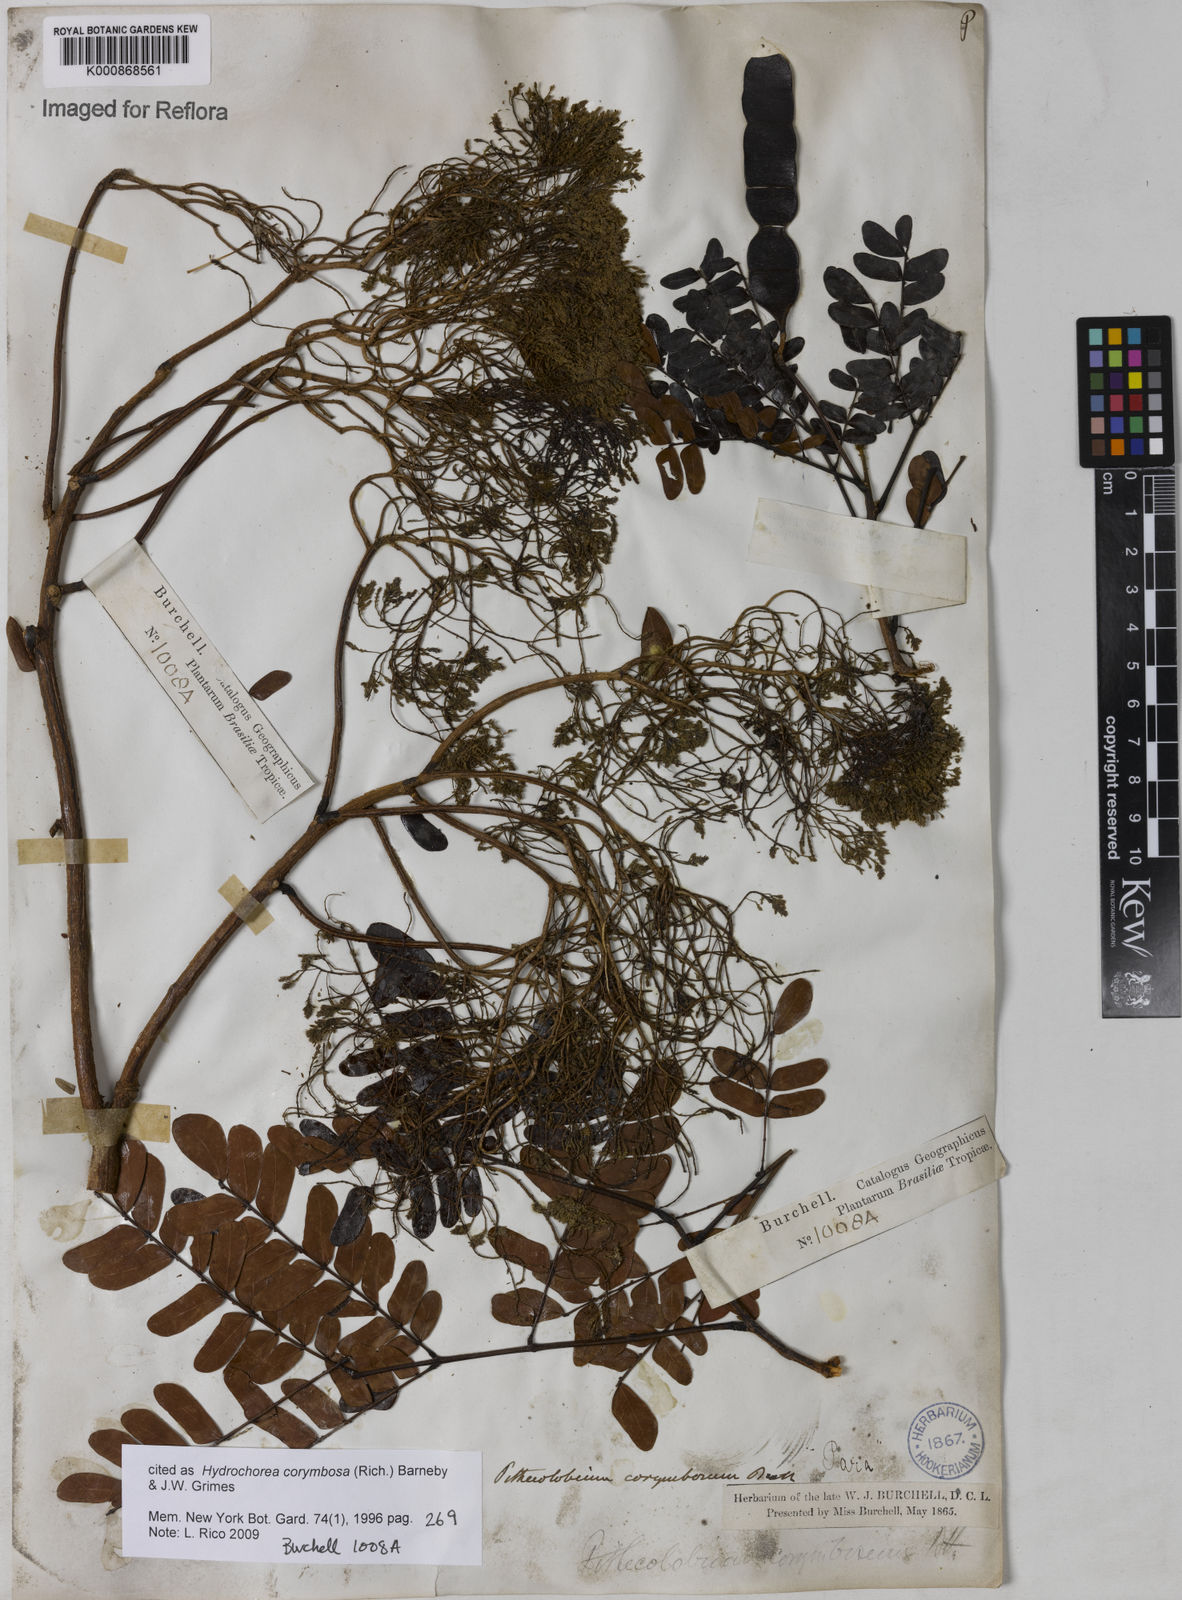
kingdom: Plantae
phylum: Tracheophyta
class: Magnoliopsida
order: Fabales
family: Fabaceae
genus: Hydrochorea
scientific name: Hydrochorea corymbosa
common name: Swamp manariballi
